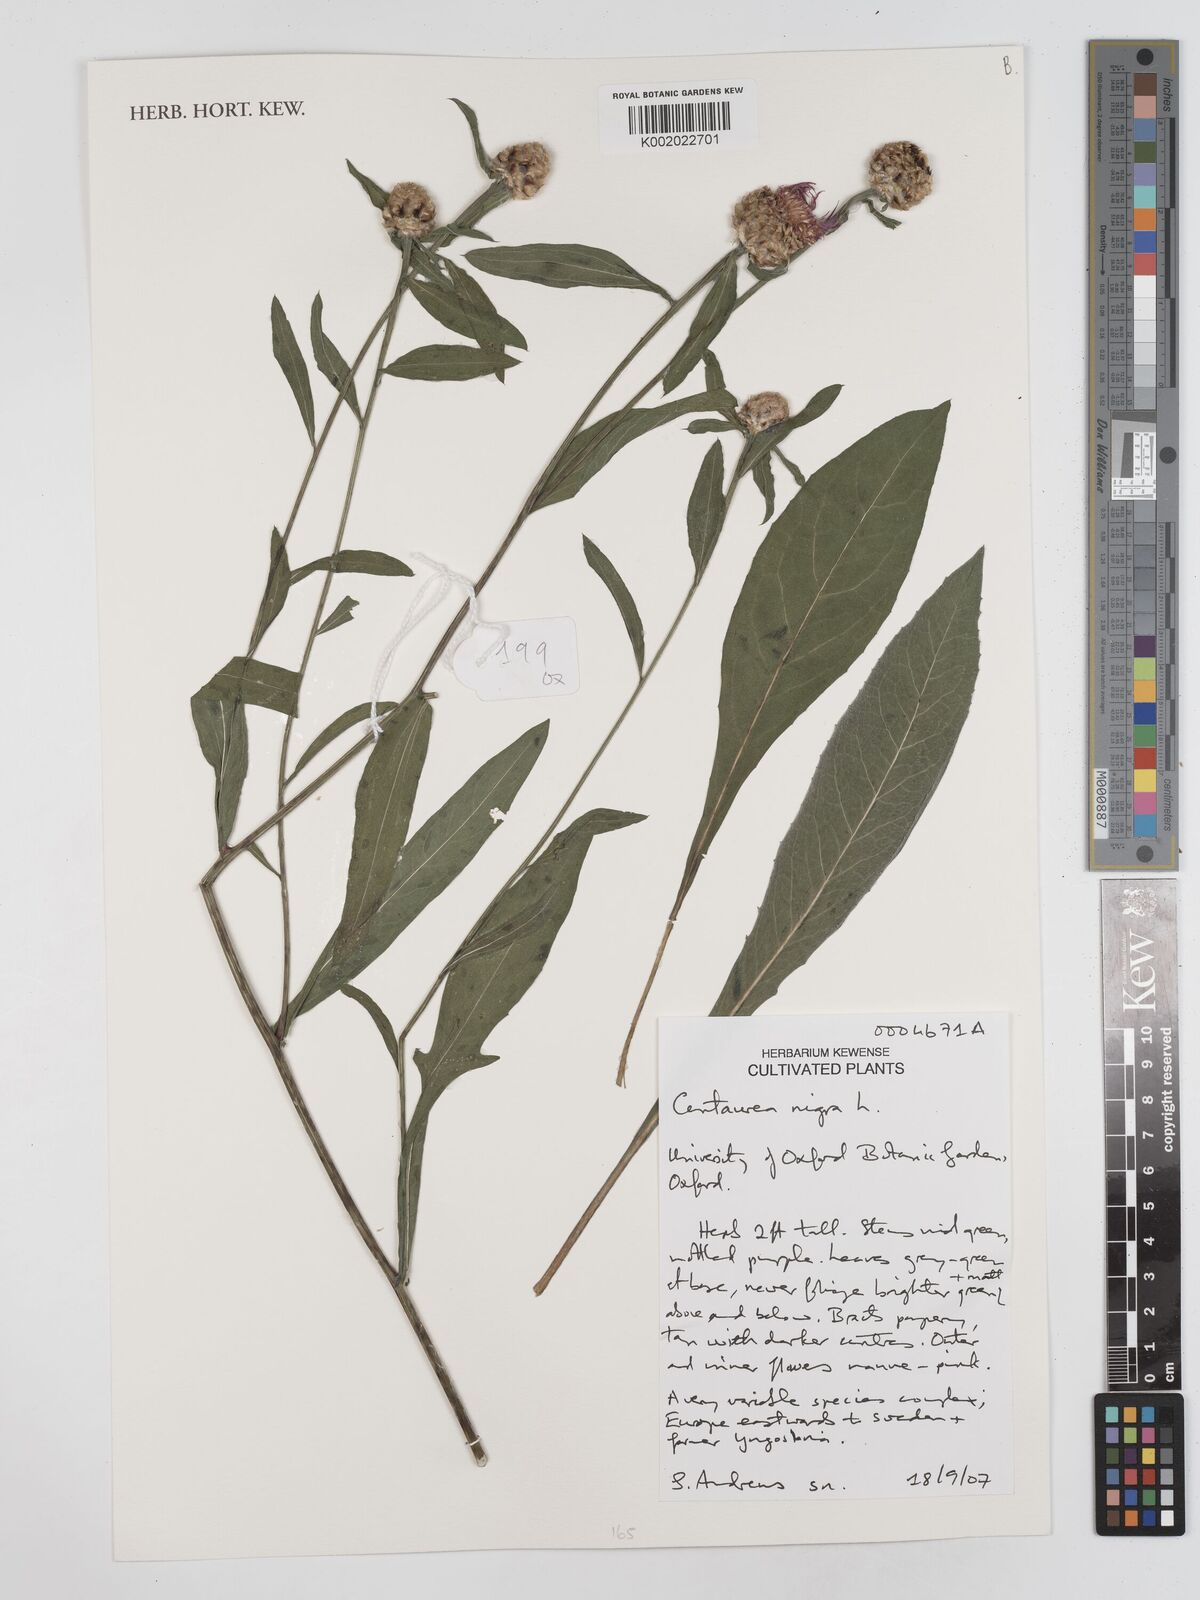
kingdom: Plantae
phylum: Tracheophyta
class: Magnoliopsida
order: Asterales
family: Asteraceae
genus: Centaurea
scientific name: Centaurea nigra
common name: Lesser knapweed
